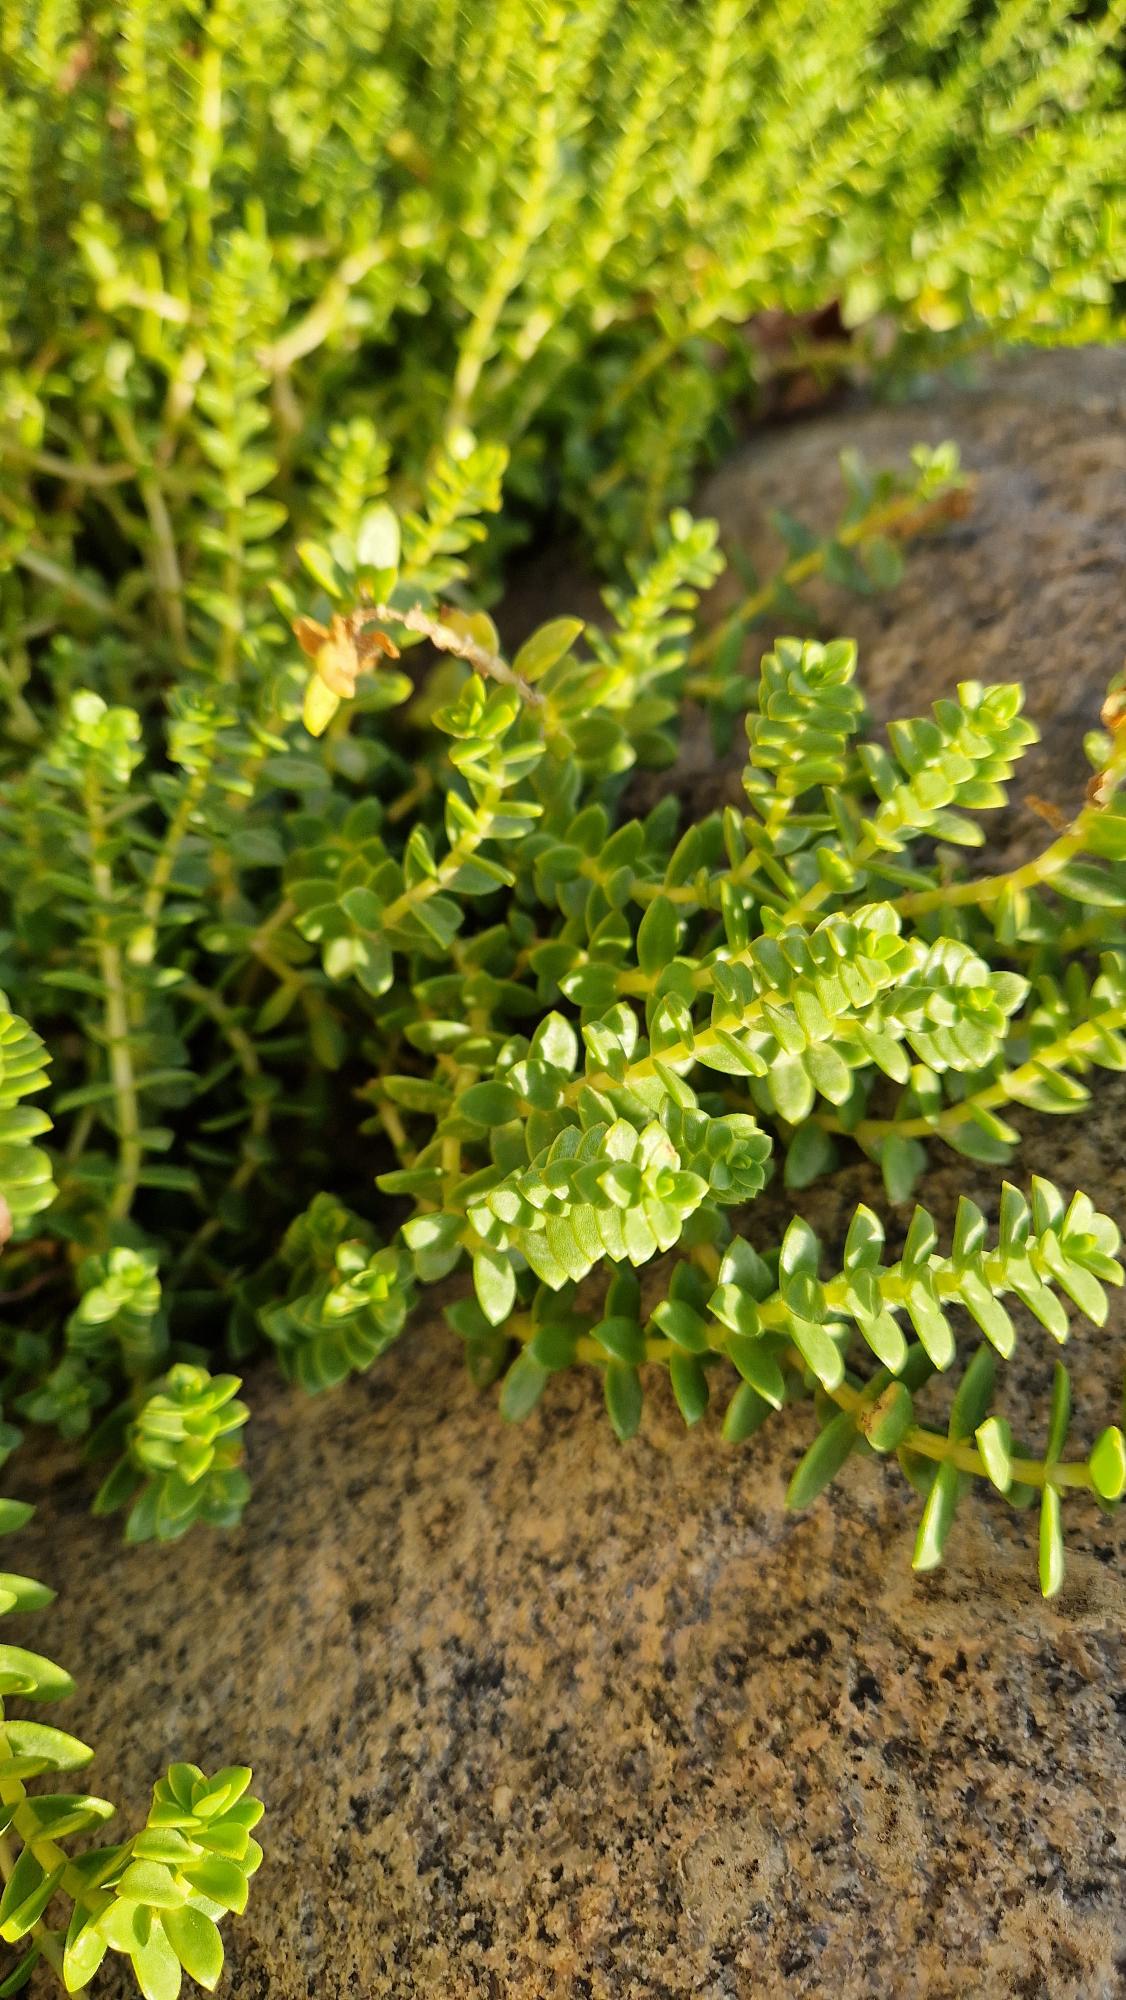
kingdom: Plantae
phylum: Tracheophyta
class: Magnoliopsida
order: Caryophyllales
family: Caryophyllaceae
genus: Honckenya
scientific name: Honckenya peploides
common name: Strandarve
